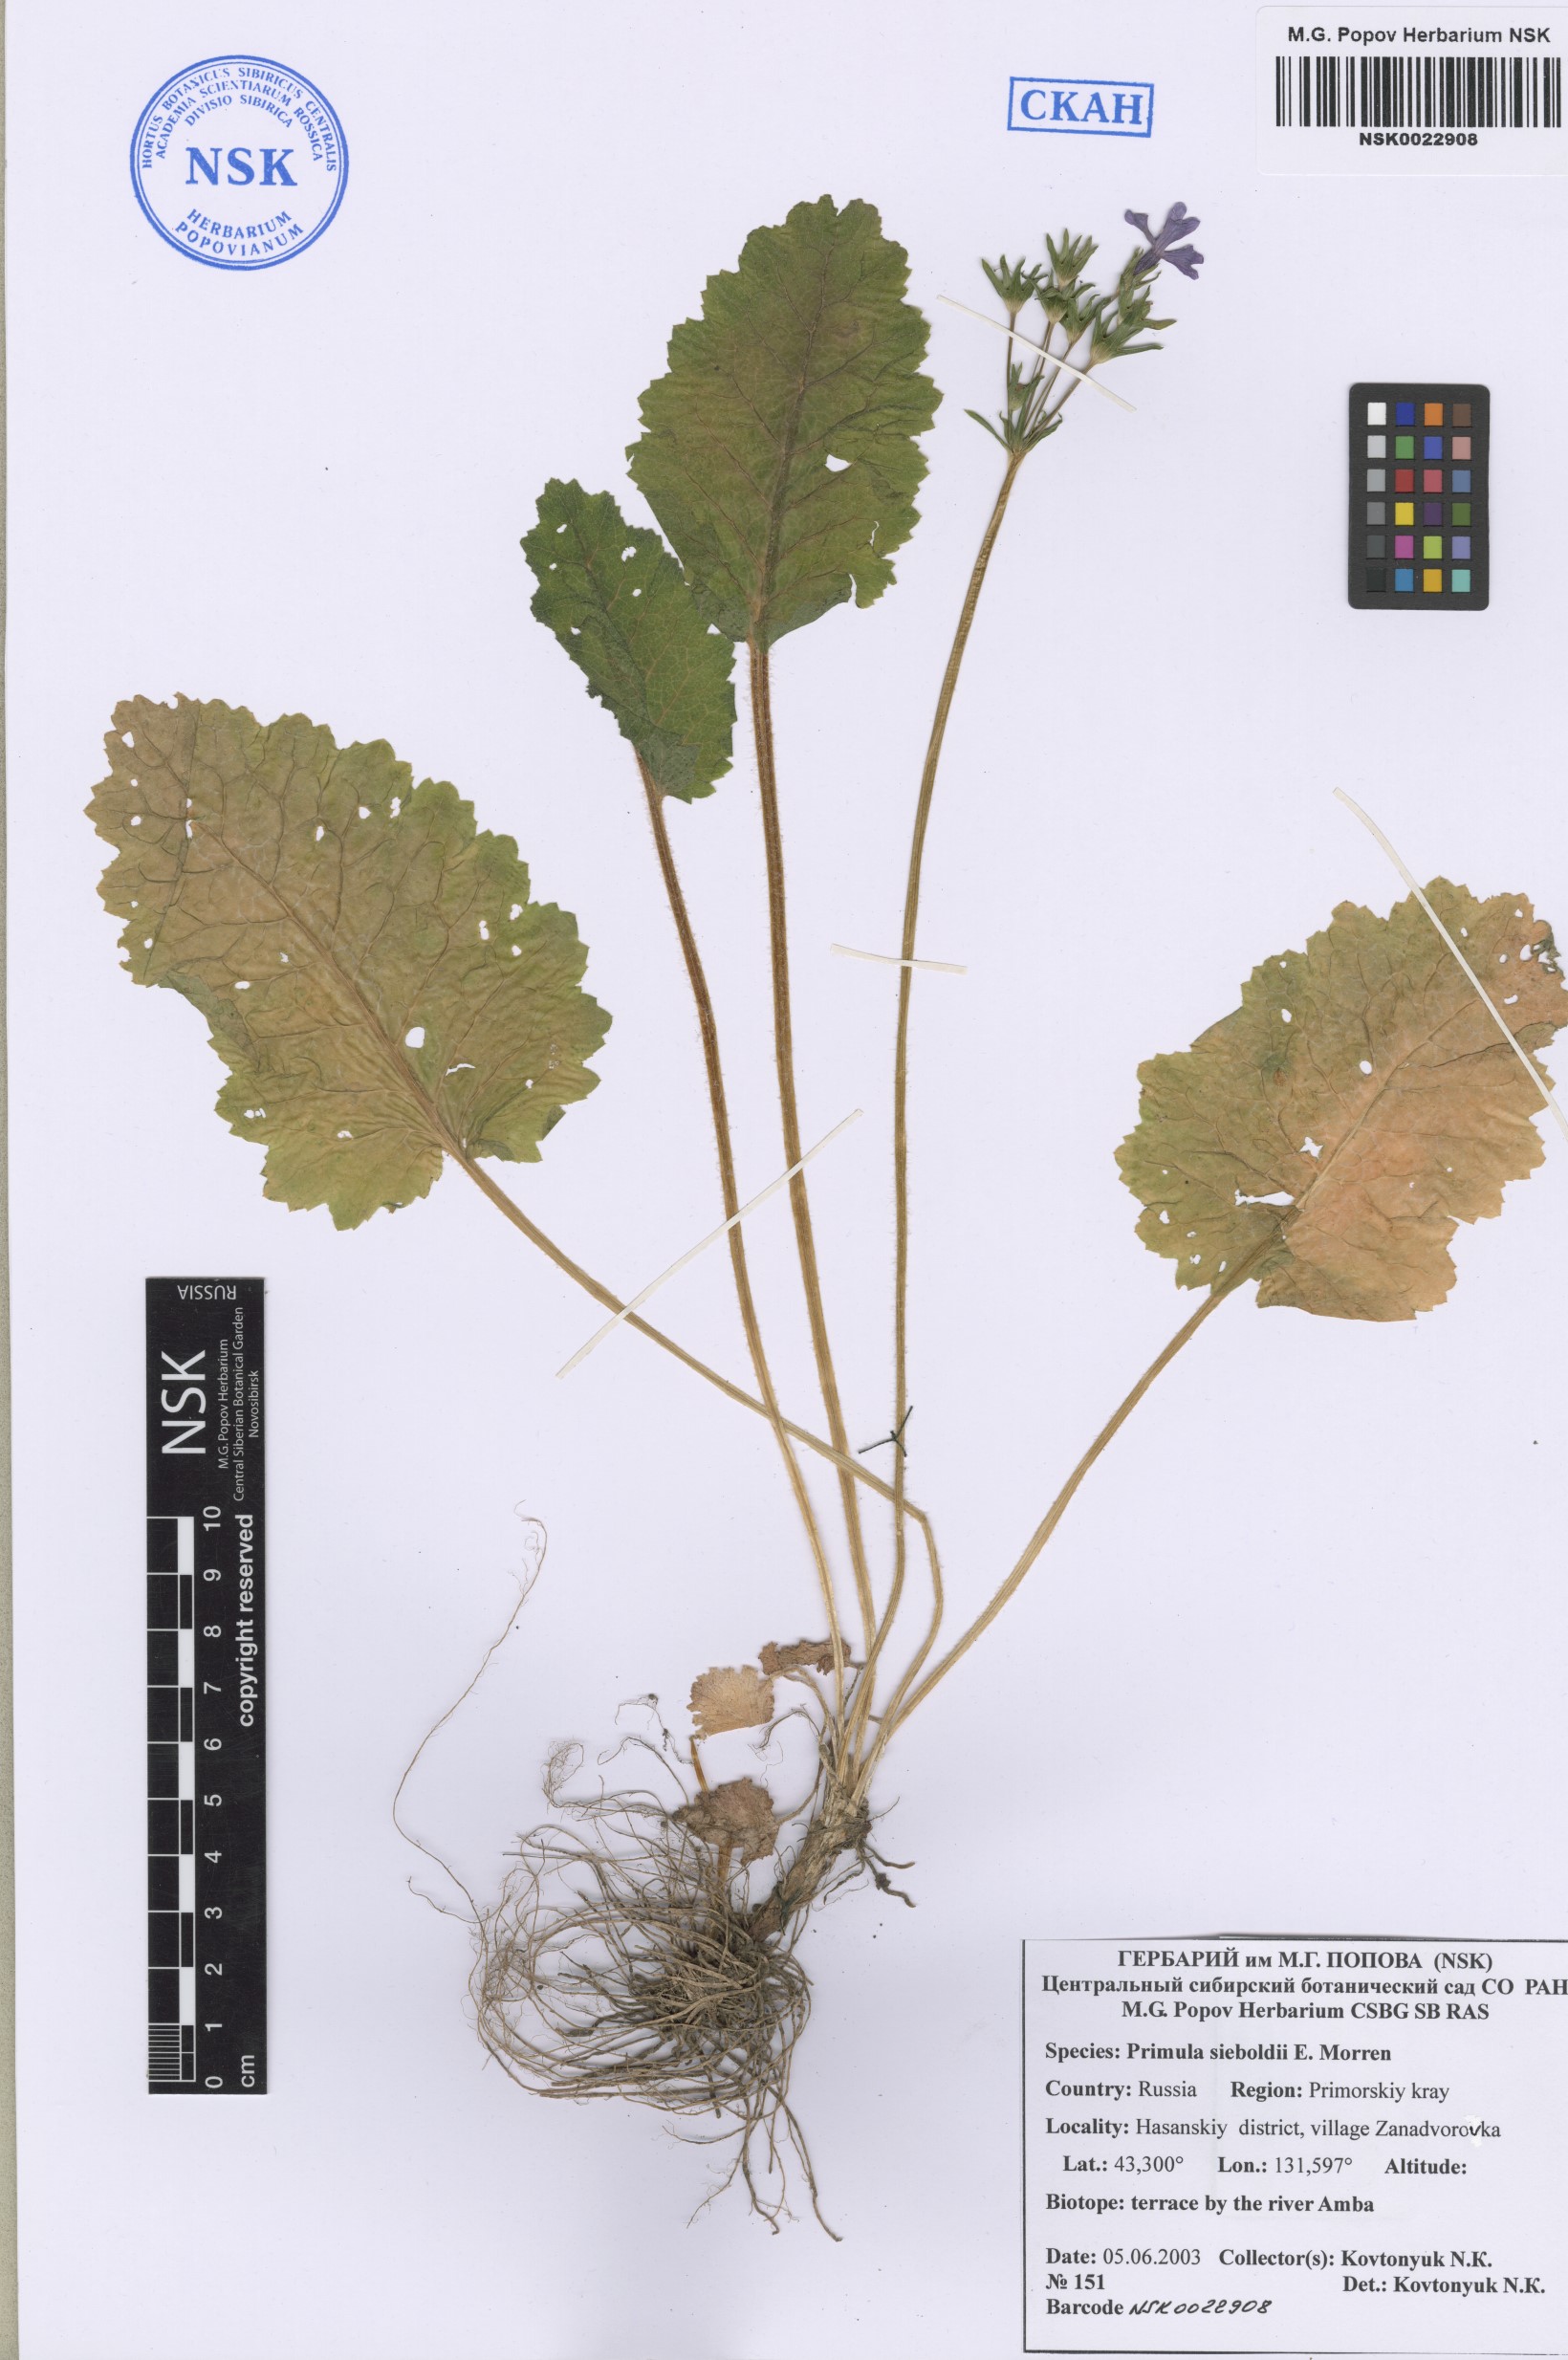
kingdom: Plantae
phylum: Tracheophyta
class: Magnoliopsida
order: Ericales
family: Primulaceae
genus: Primula
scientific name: Primula sieboldii
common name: Japanese primrose
